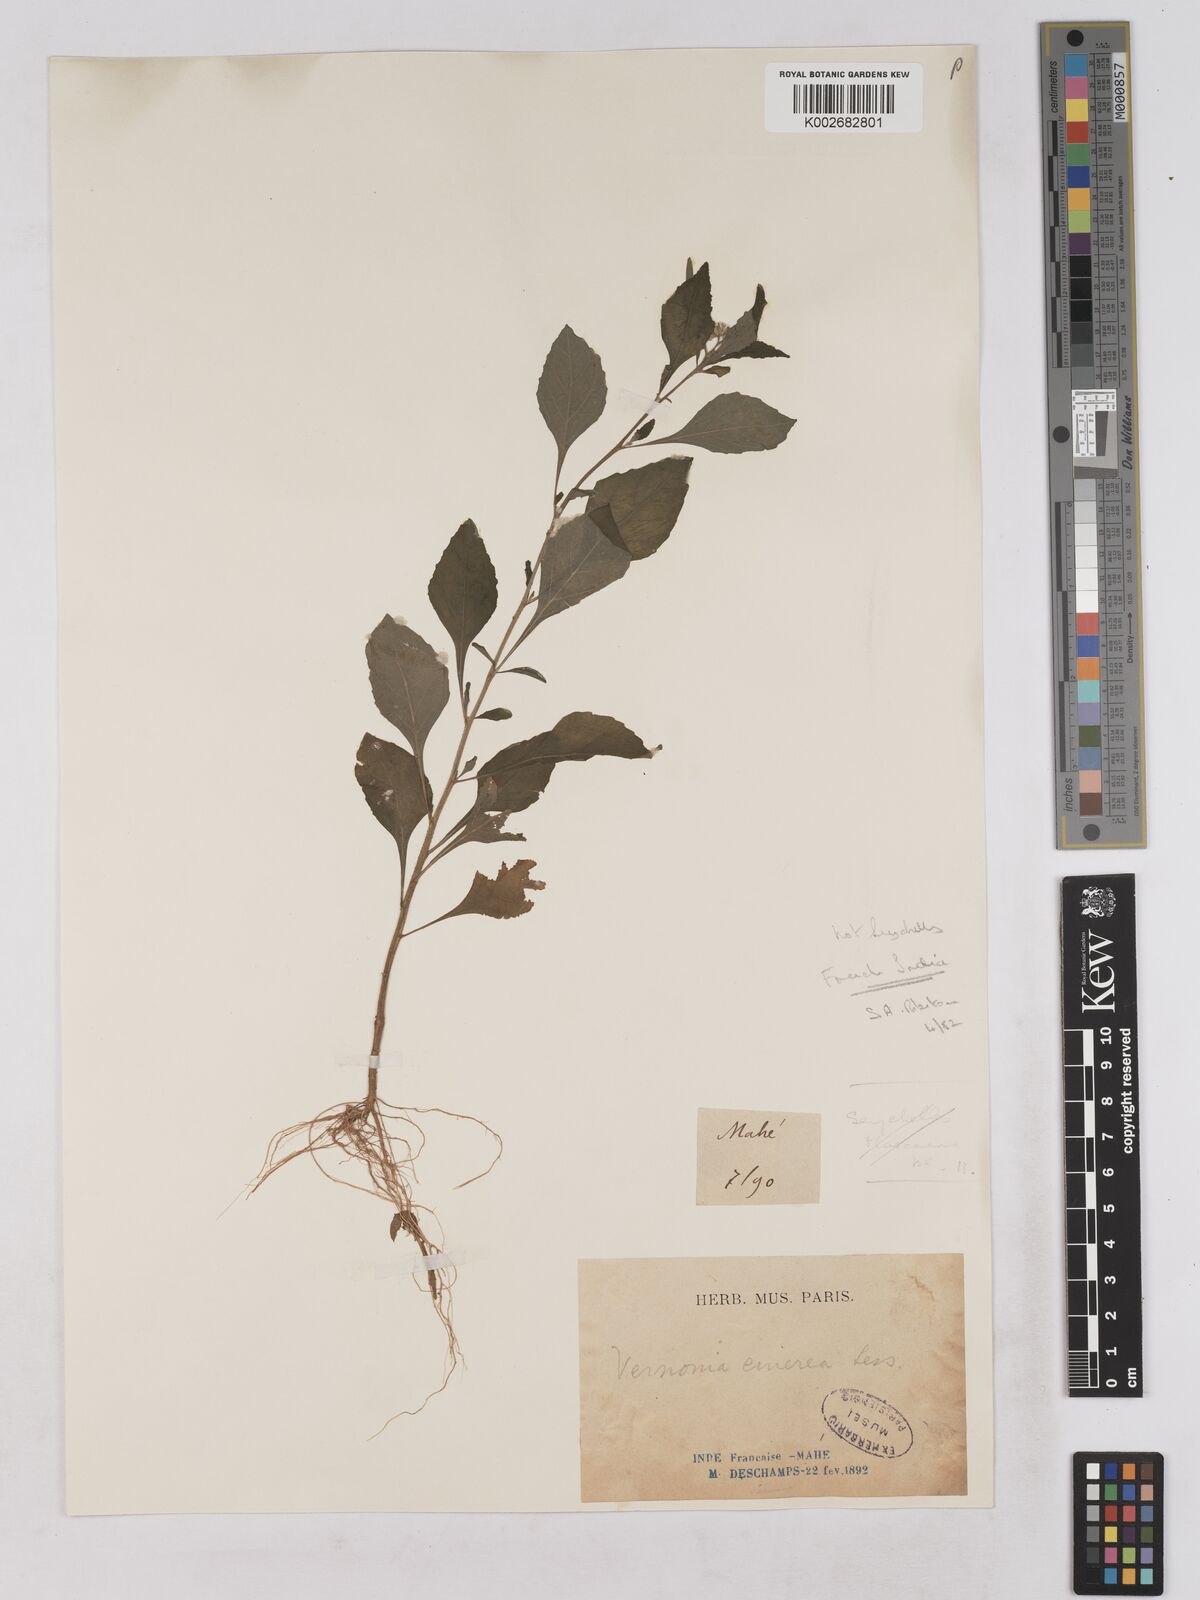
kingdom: Plantae
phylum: Tracheophyta
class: Magnoliopsida
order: Asterales
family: Asteraceae
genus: Cyanthillium
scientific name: Cyanthillium cinereum
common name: Little ironweed
